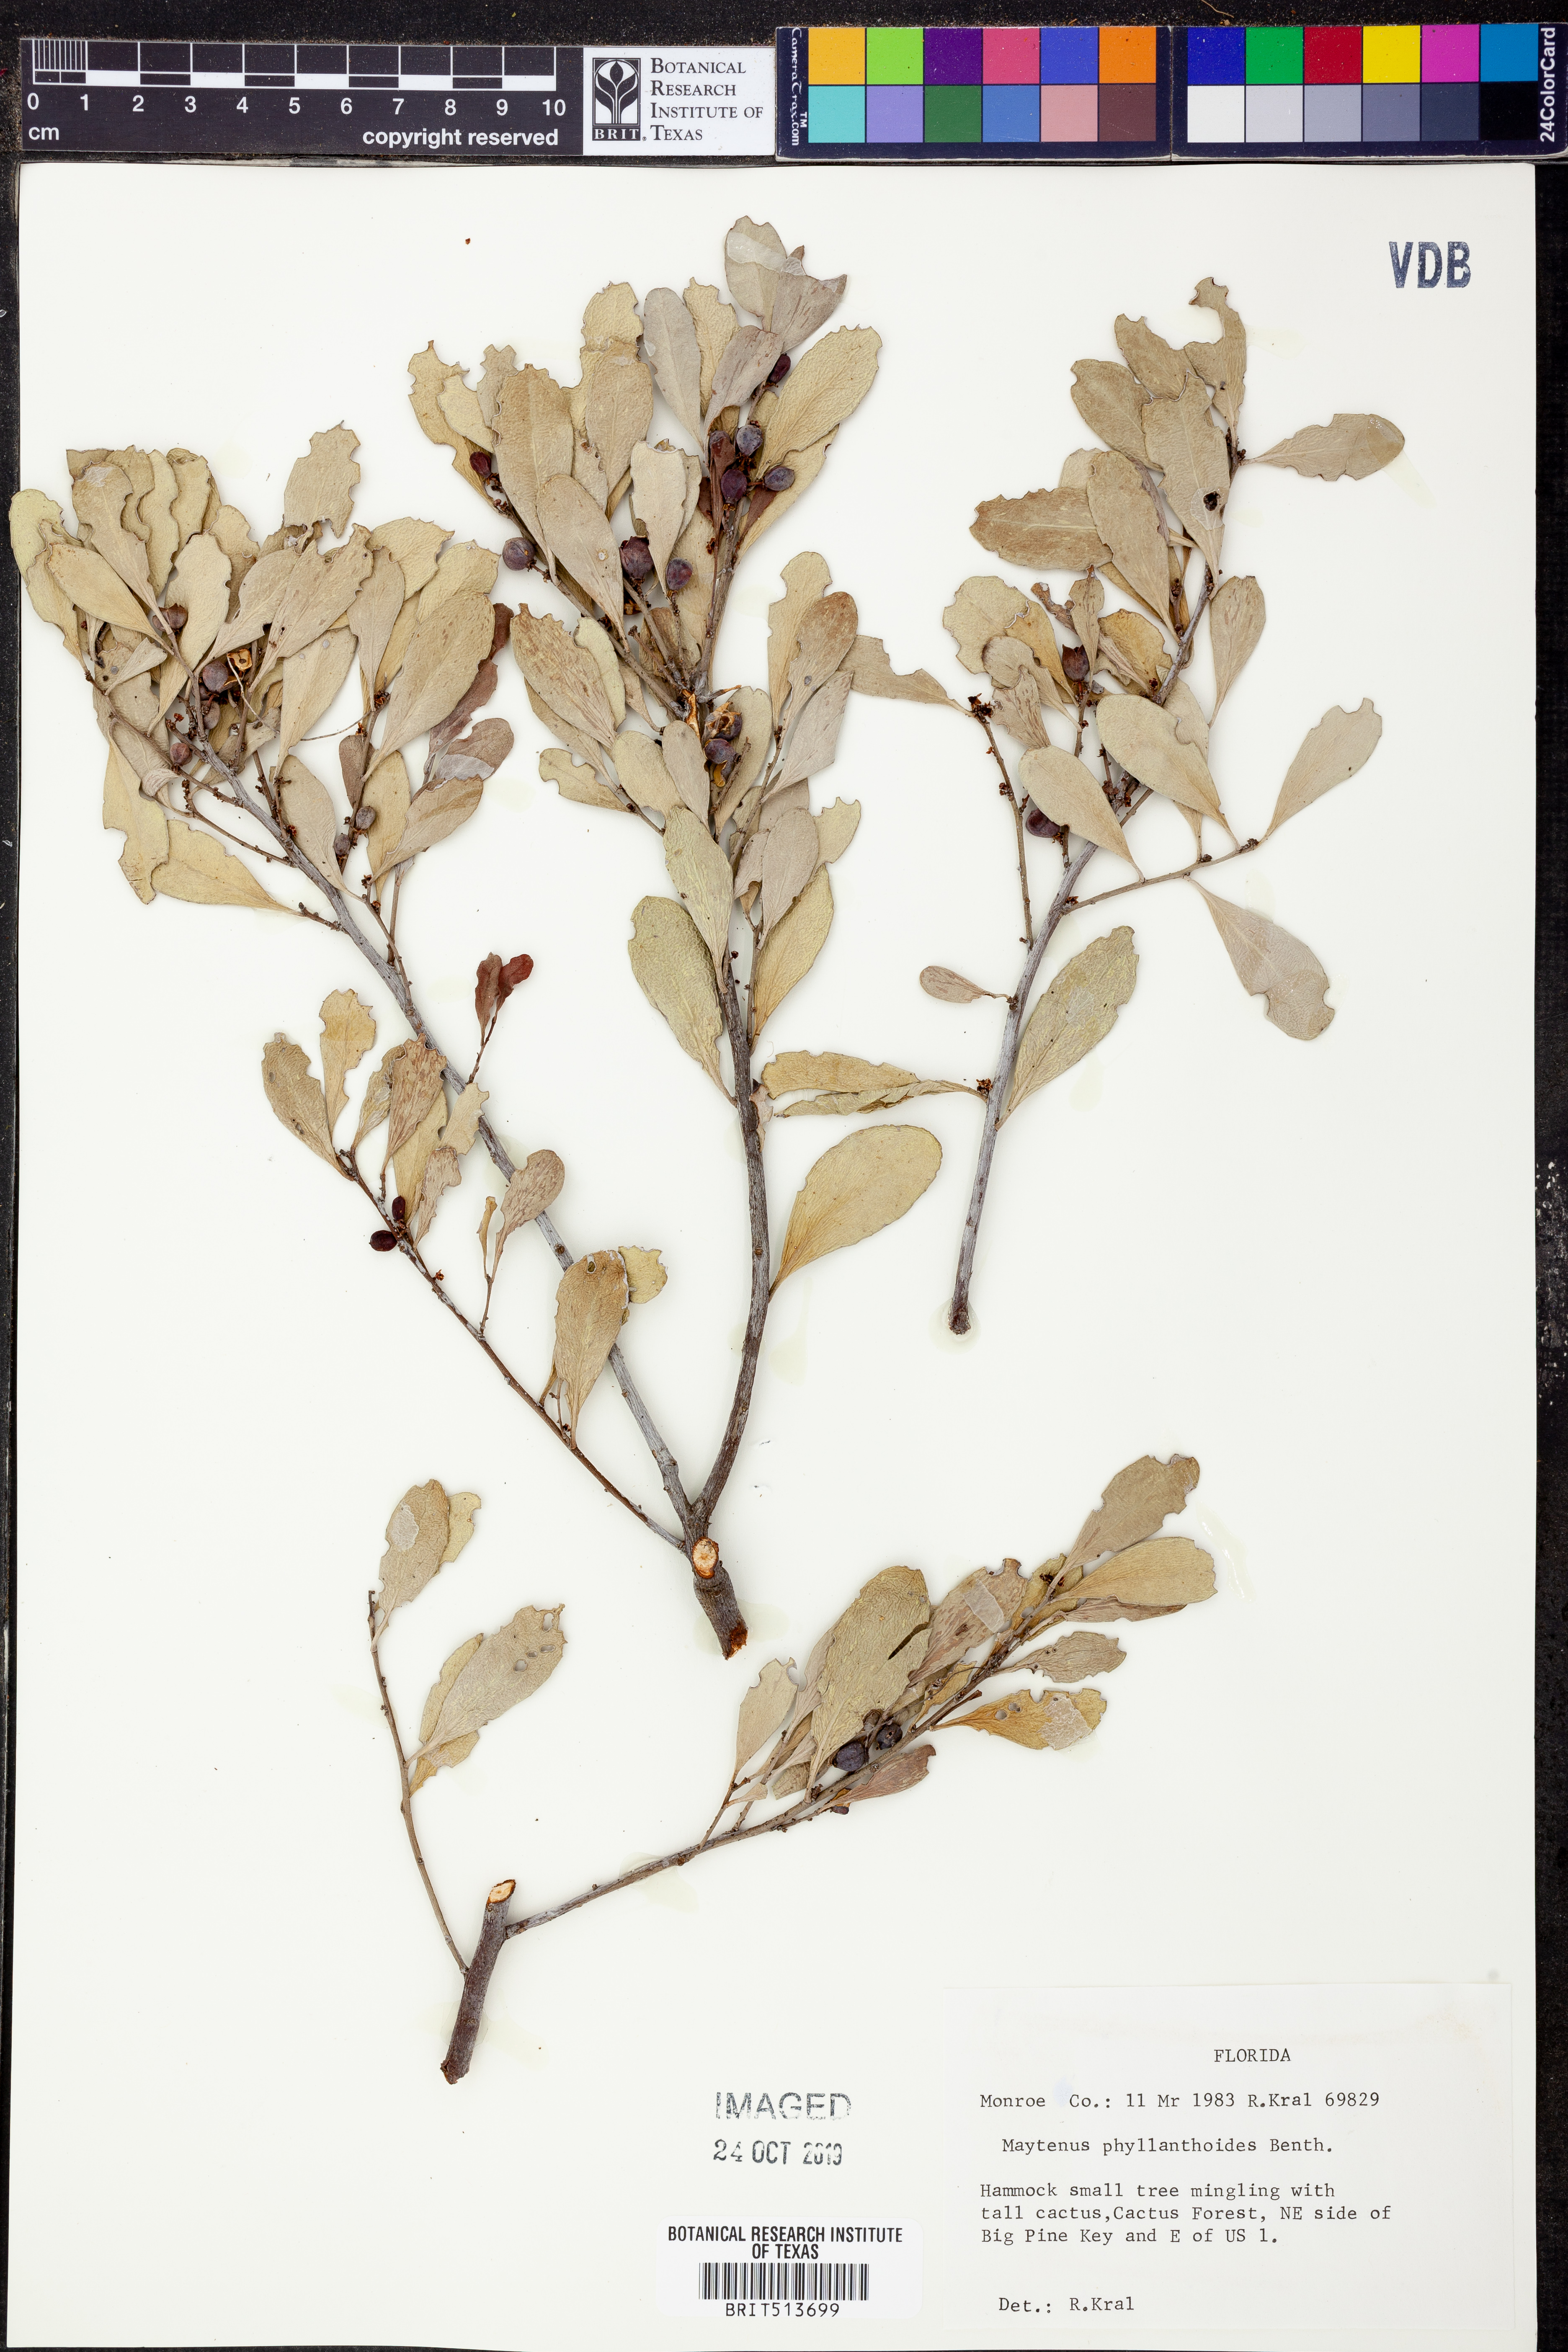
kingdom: Plantae
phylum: Tracheophyta
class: Magnoliopsida
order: Celastrales
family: Celastraceae
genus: Tricerma
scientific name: Tricerma phyllanthoides
